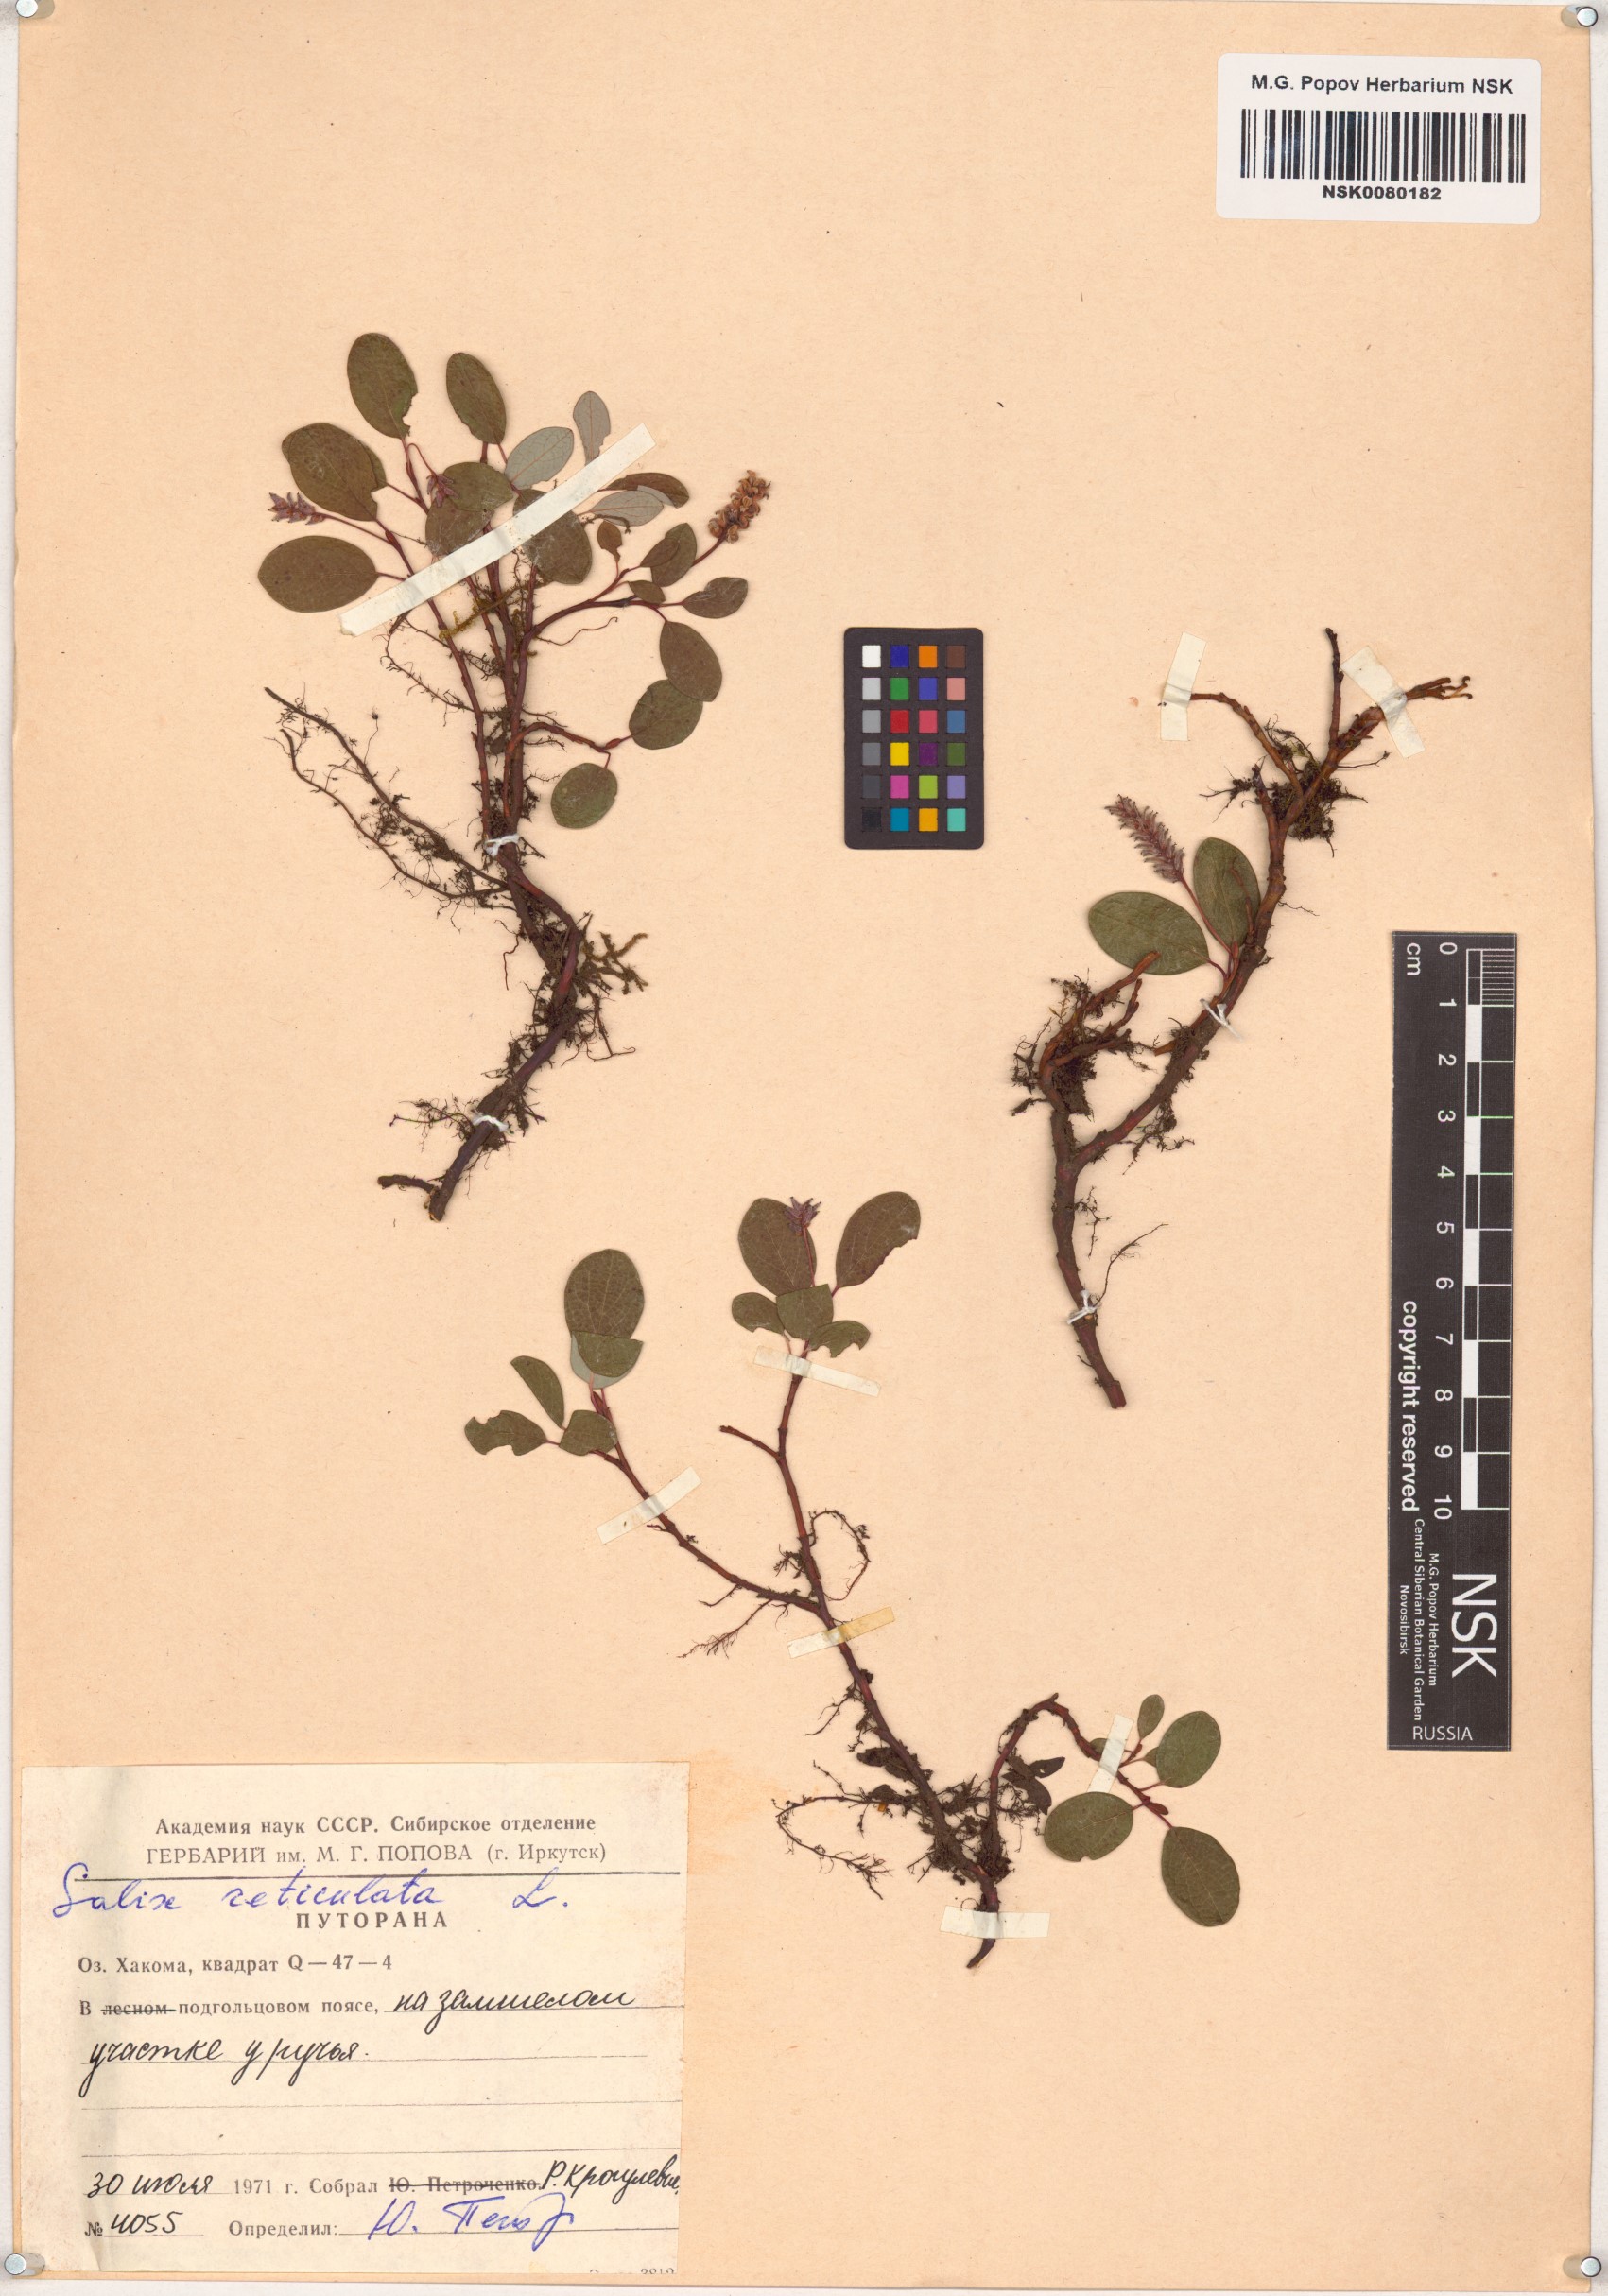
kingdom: Plantae
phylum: Tracheophyta
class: Magnoliopsida
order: Malpighiales
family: Salicaceae
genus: Salix
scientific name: Salix reticulata
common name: Net-leaved willow
